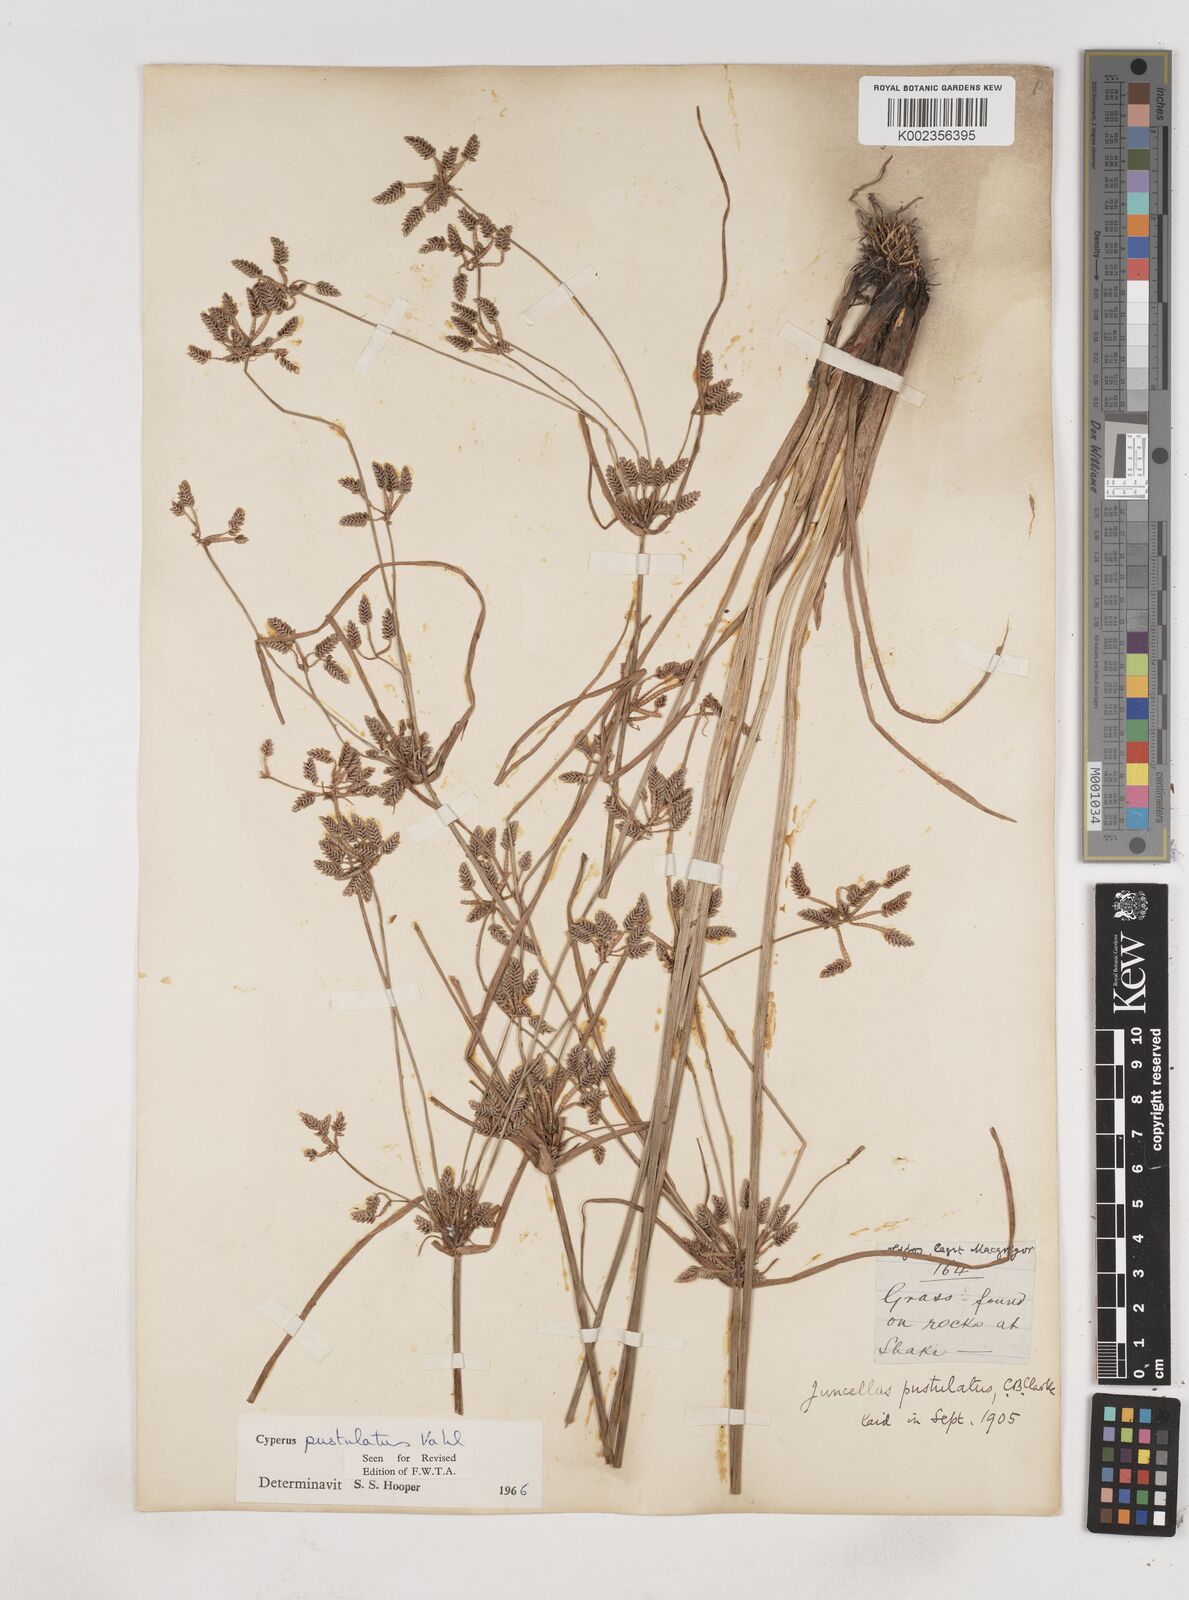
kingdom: Plantae
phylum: Tracheophyta
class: Liliopsida
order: Poales
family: Cyperaceae
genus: Cyperus
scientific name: Cyperus pustulatus
